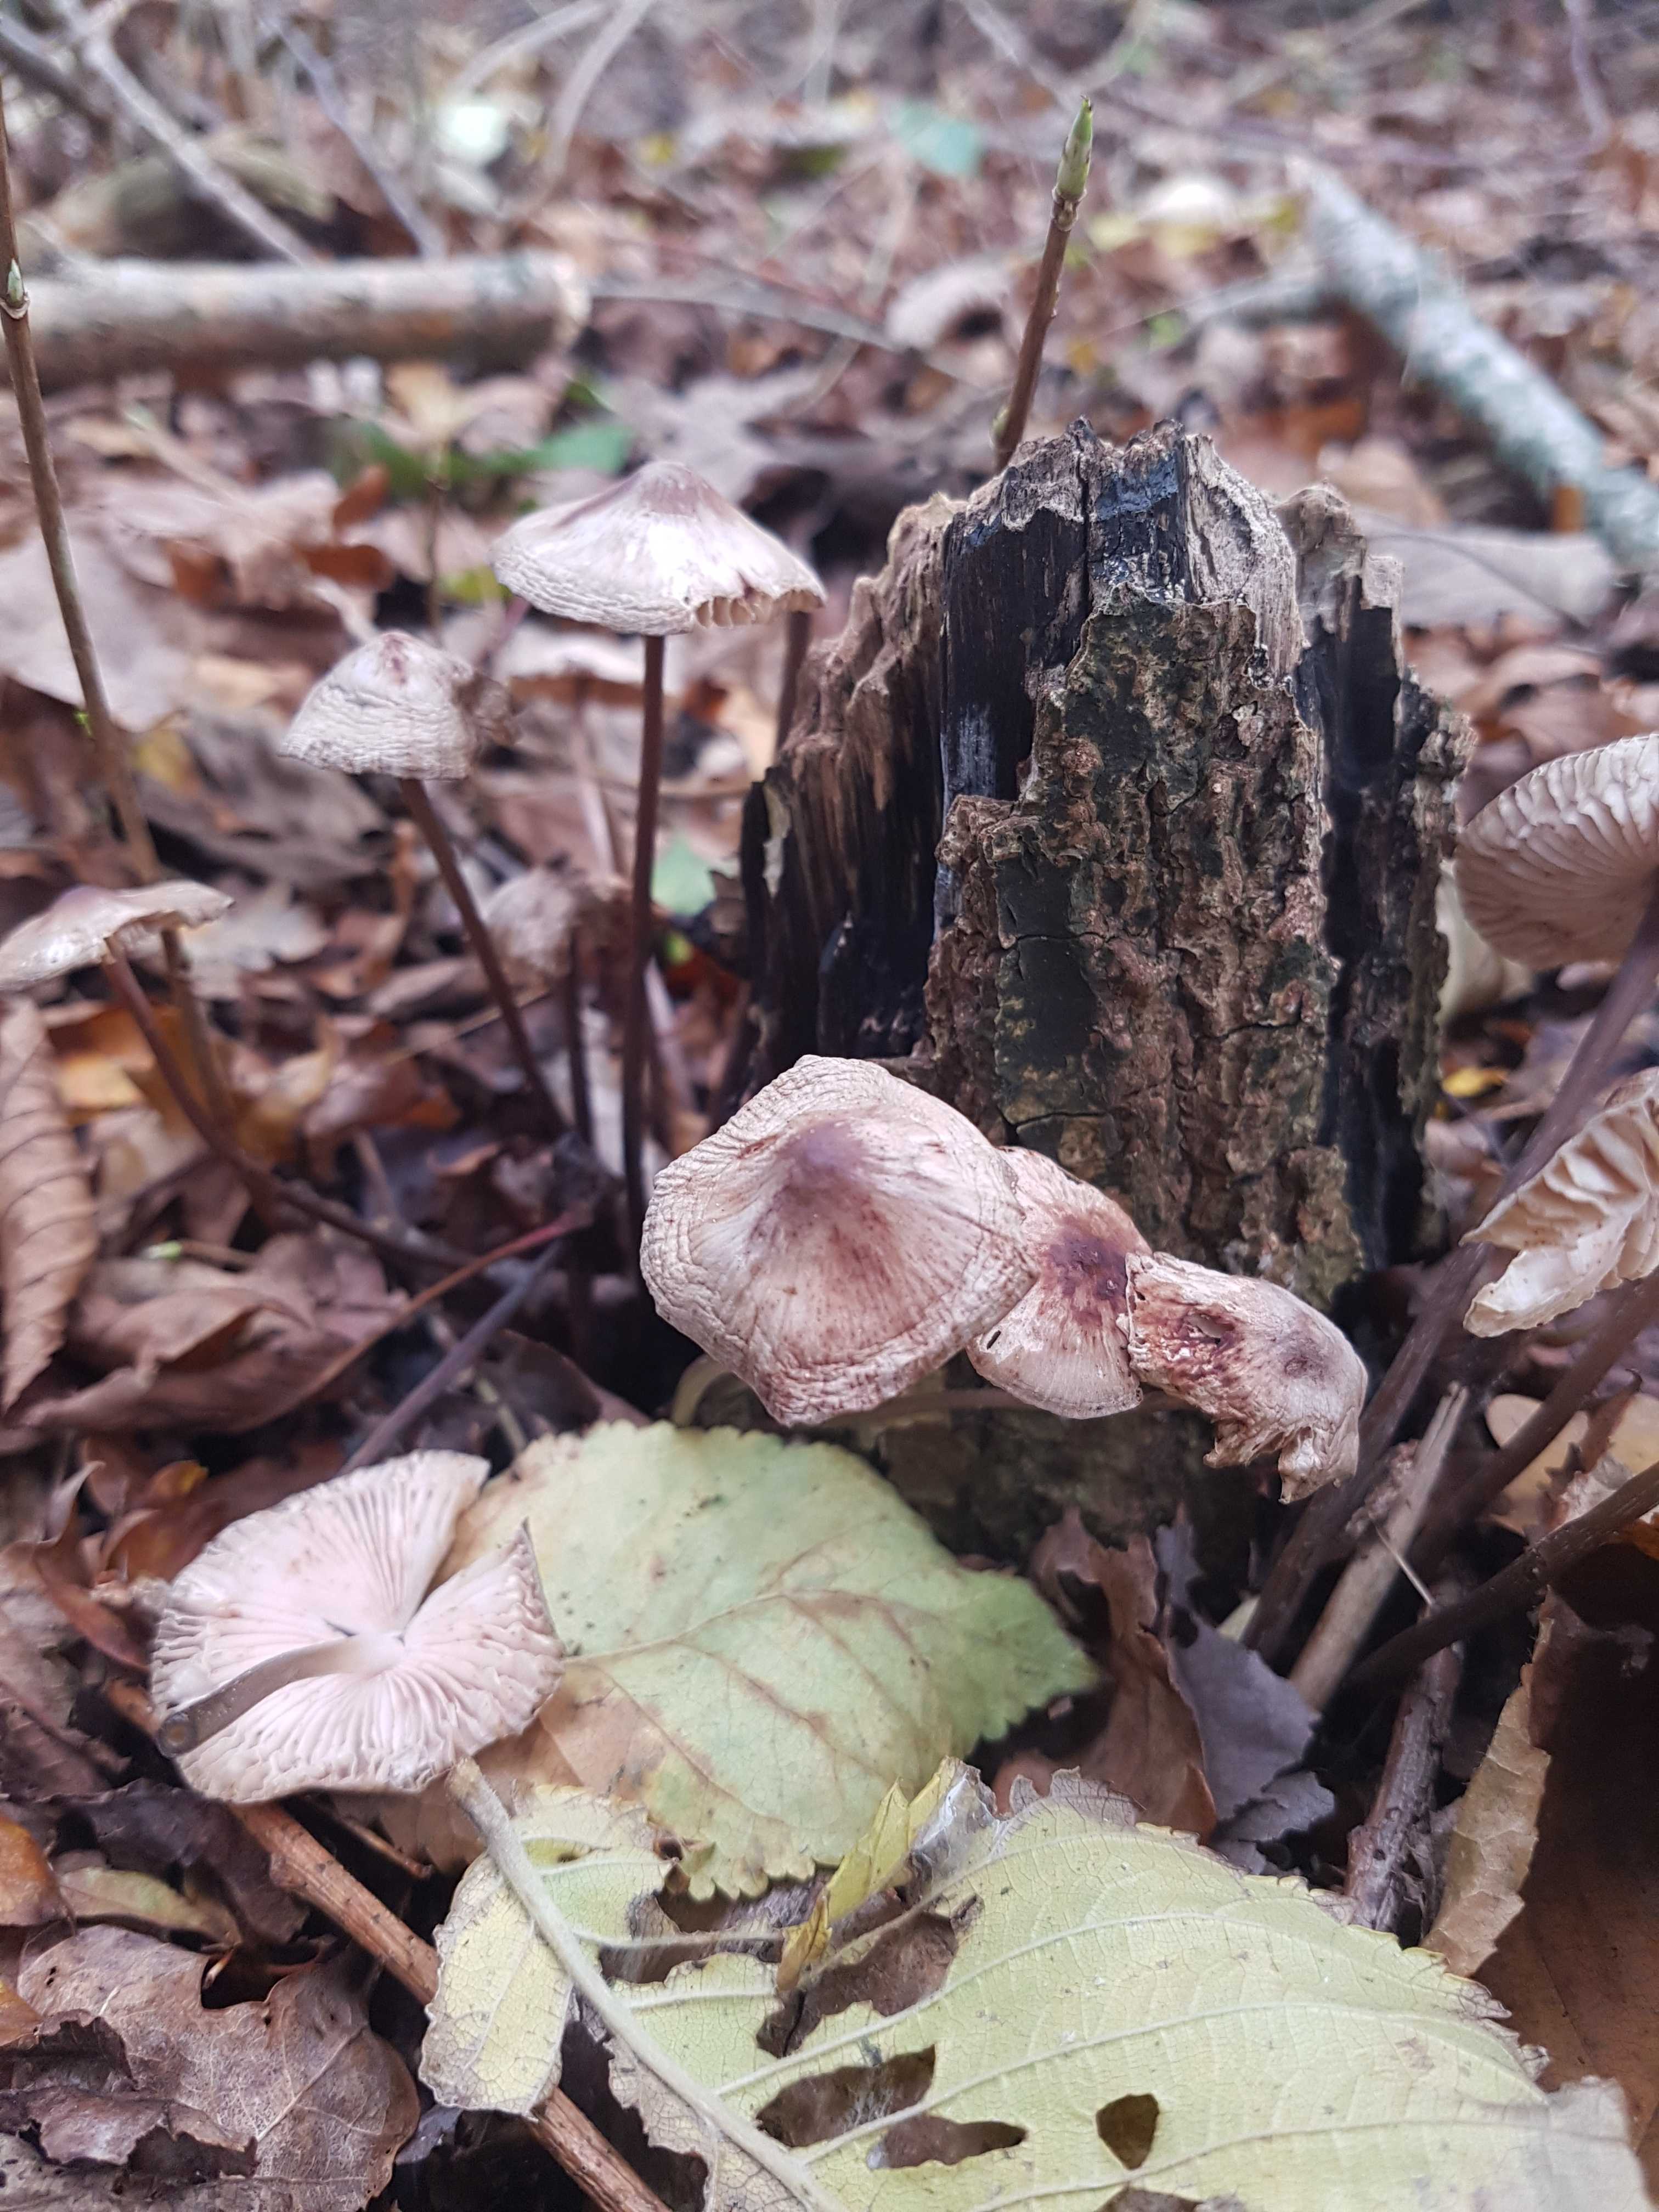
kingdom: Fungi
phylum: Basidiomycota
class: Agaricomycetes
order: Agaricales
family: Mycenaceae
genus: Mycena
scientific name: Mycena
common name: huesvamp
